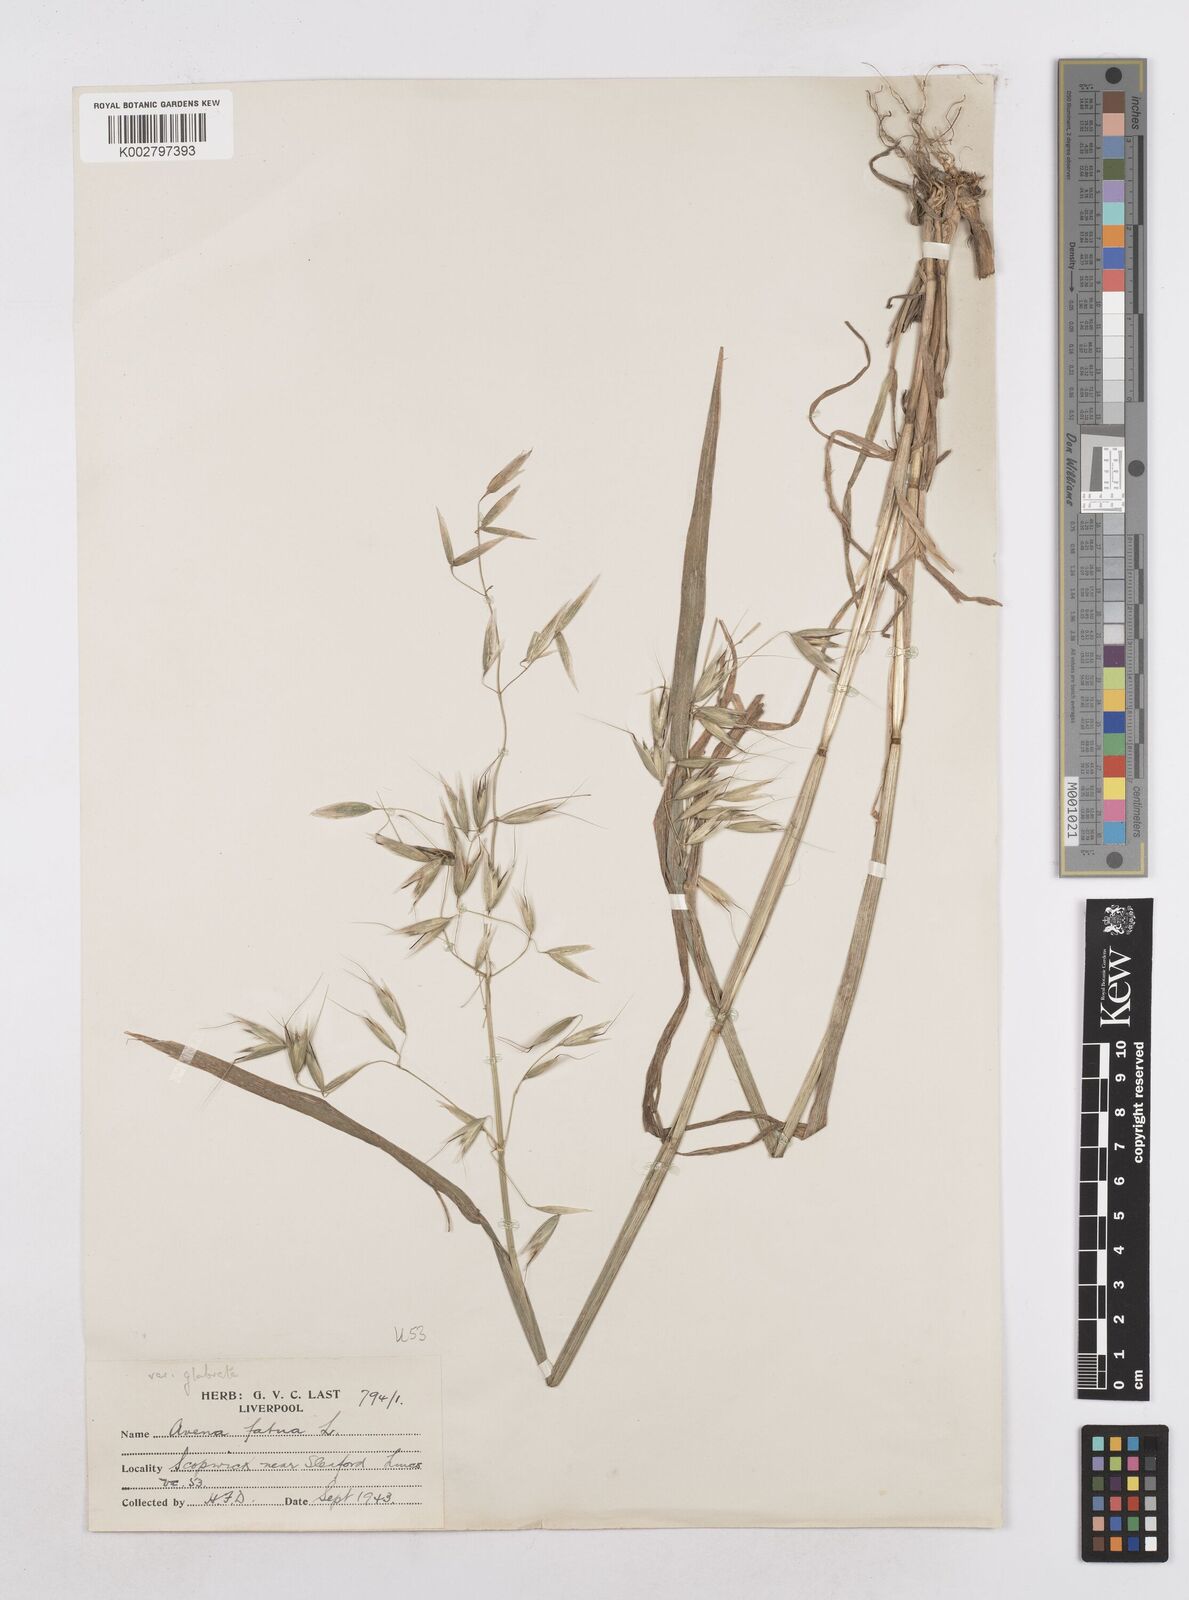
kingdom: Plantae
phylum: Tracheophyta
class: Liliopsida
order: Poales
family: Poaceae
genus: Avena
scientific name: Avena fatua
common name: Wild oat
